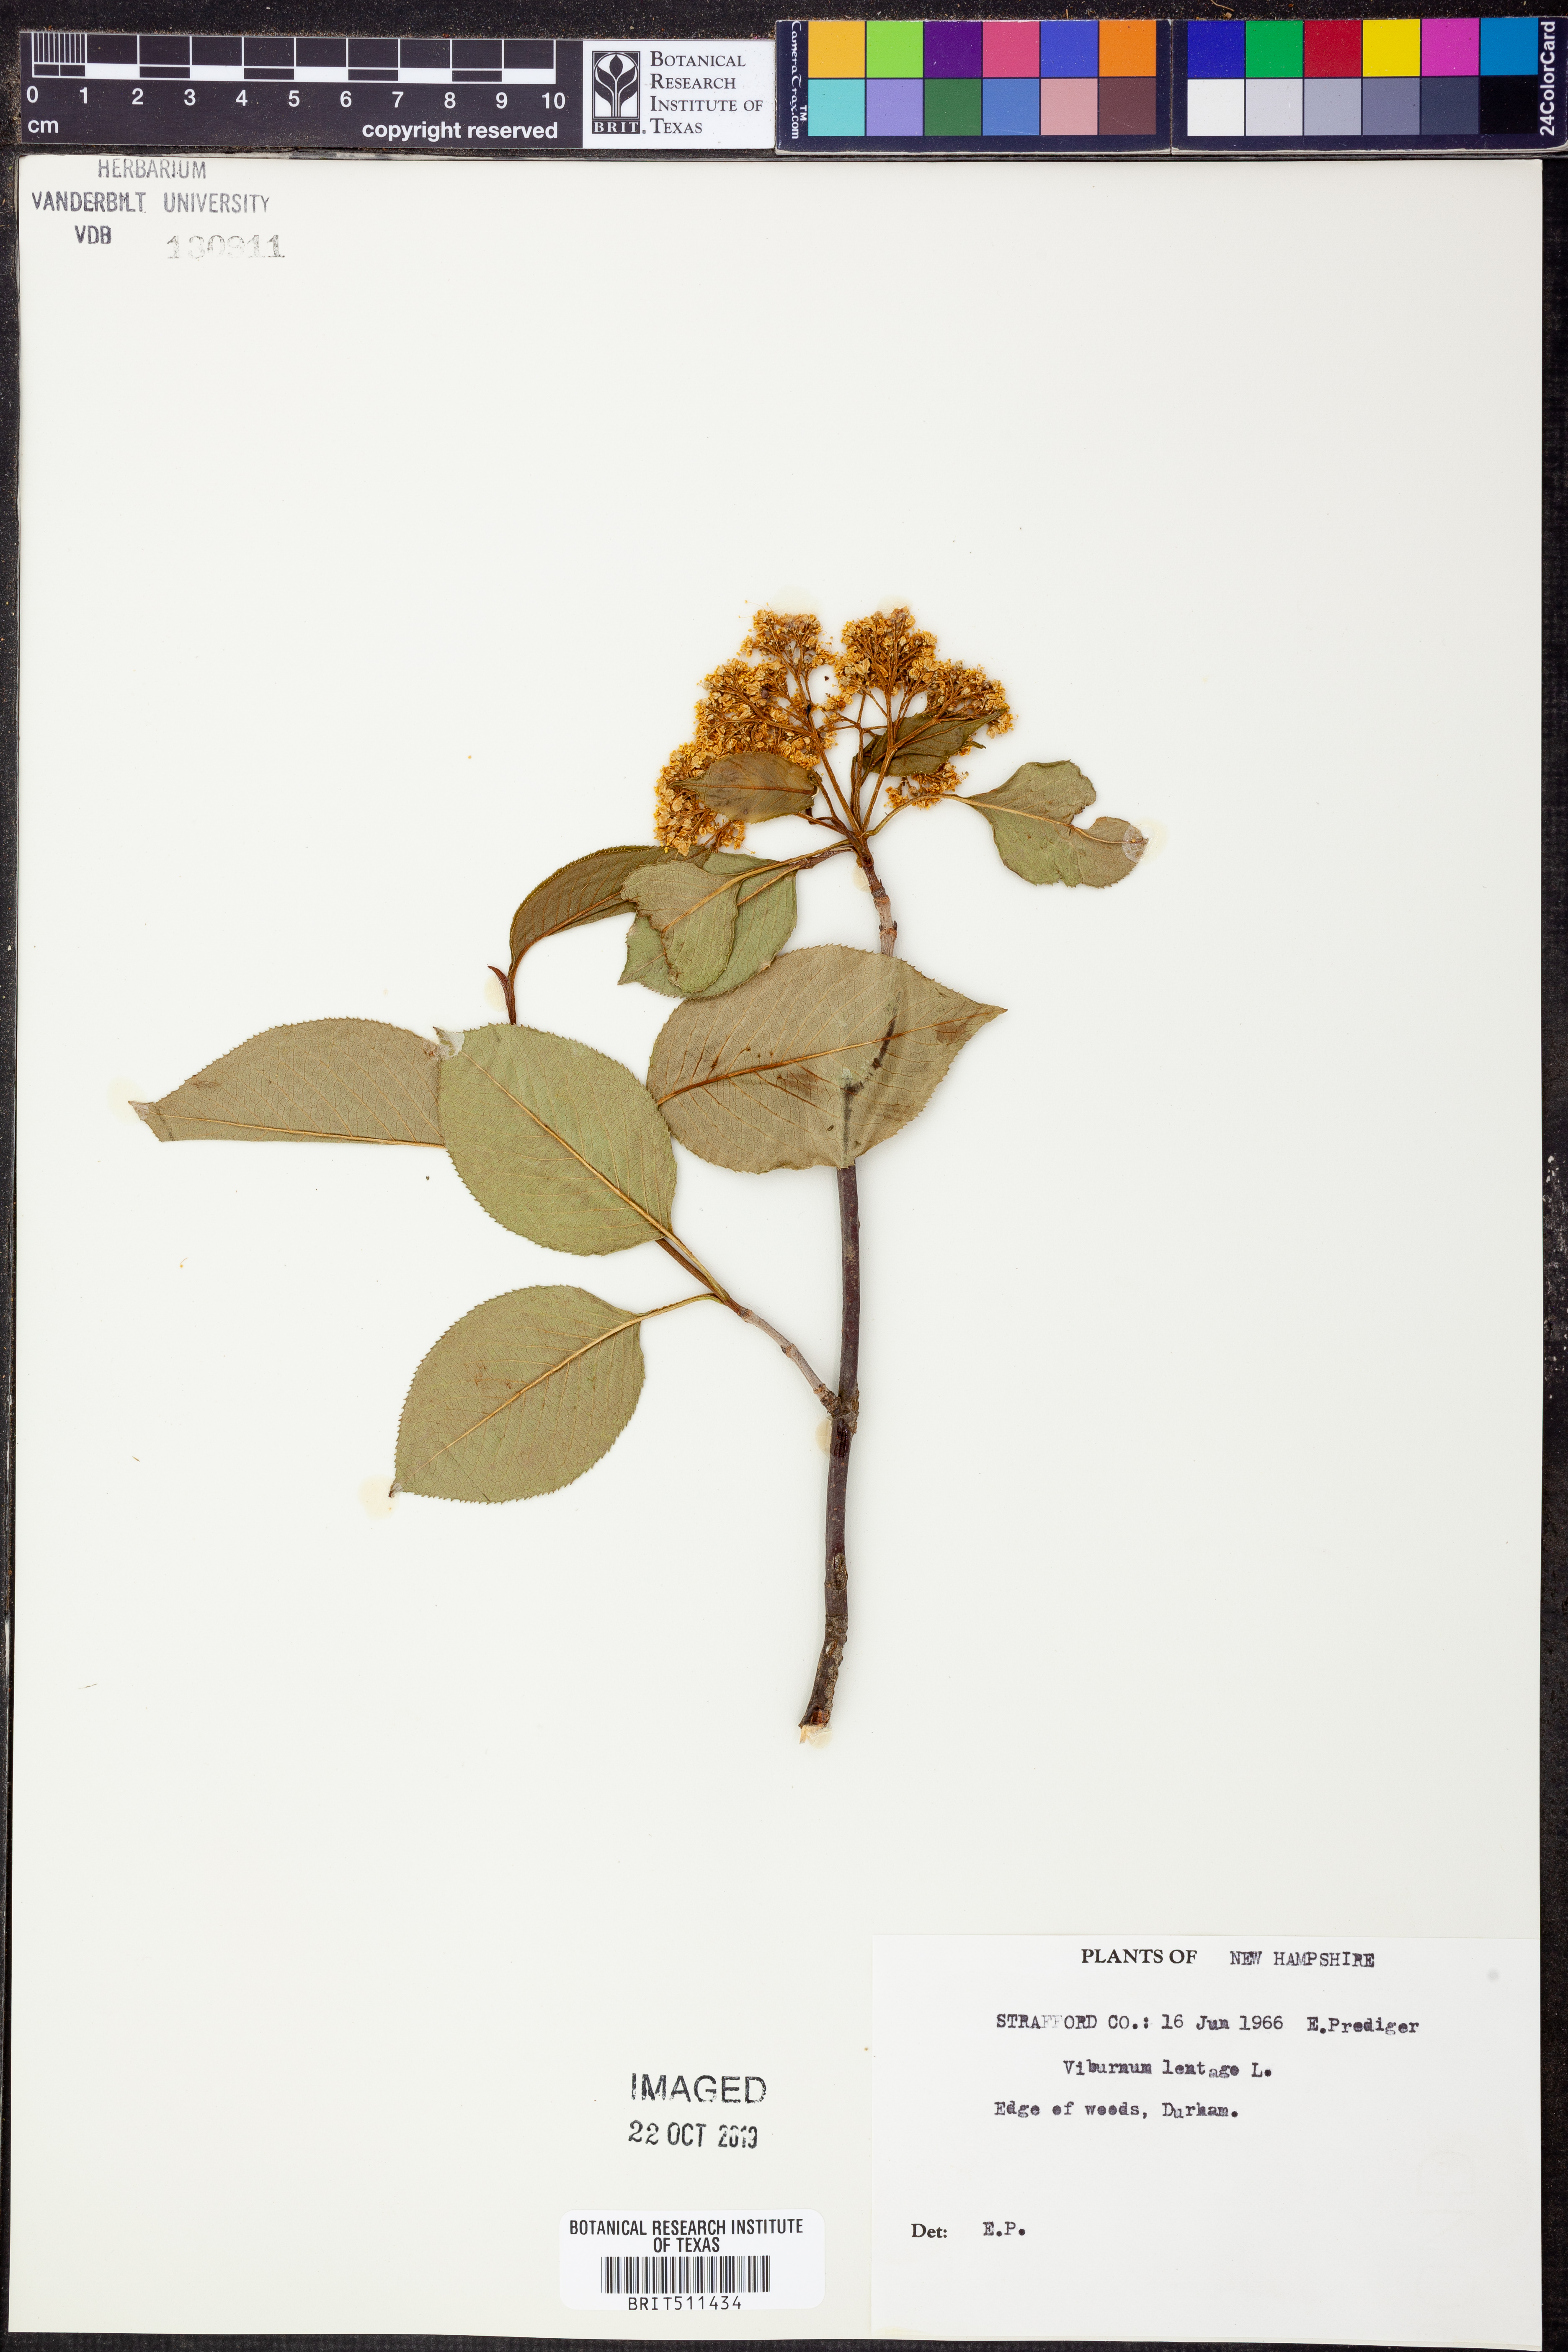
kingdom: Plantae
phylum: Tracheophyta
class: Magnoliopsida
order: Dipsacales
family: Viburnaceae
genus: Viburnum
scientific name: Viburnum lentago
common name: Black haw
